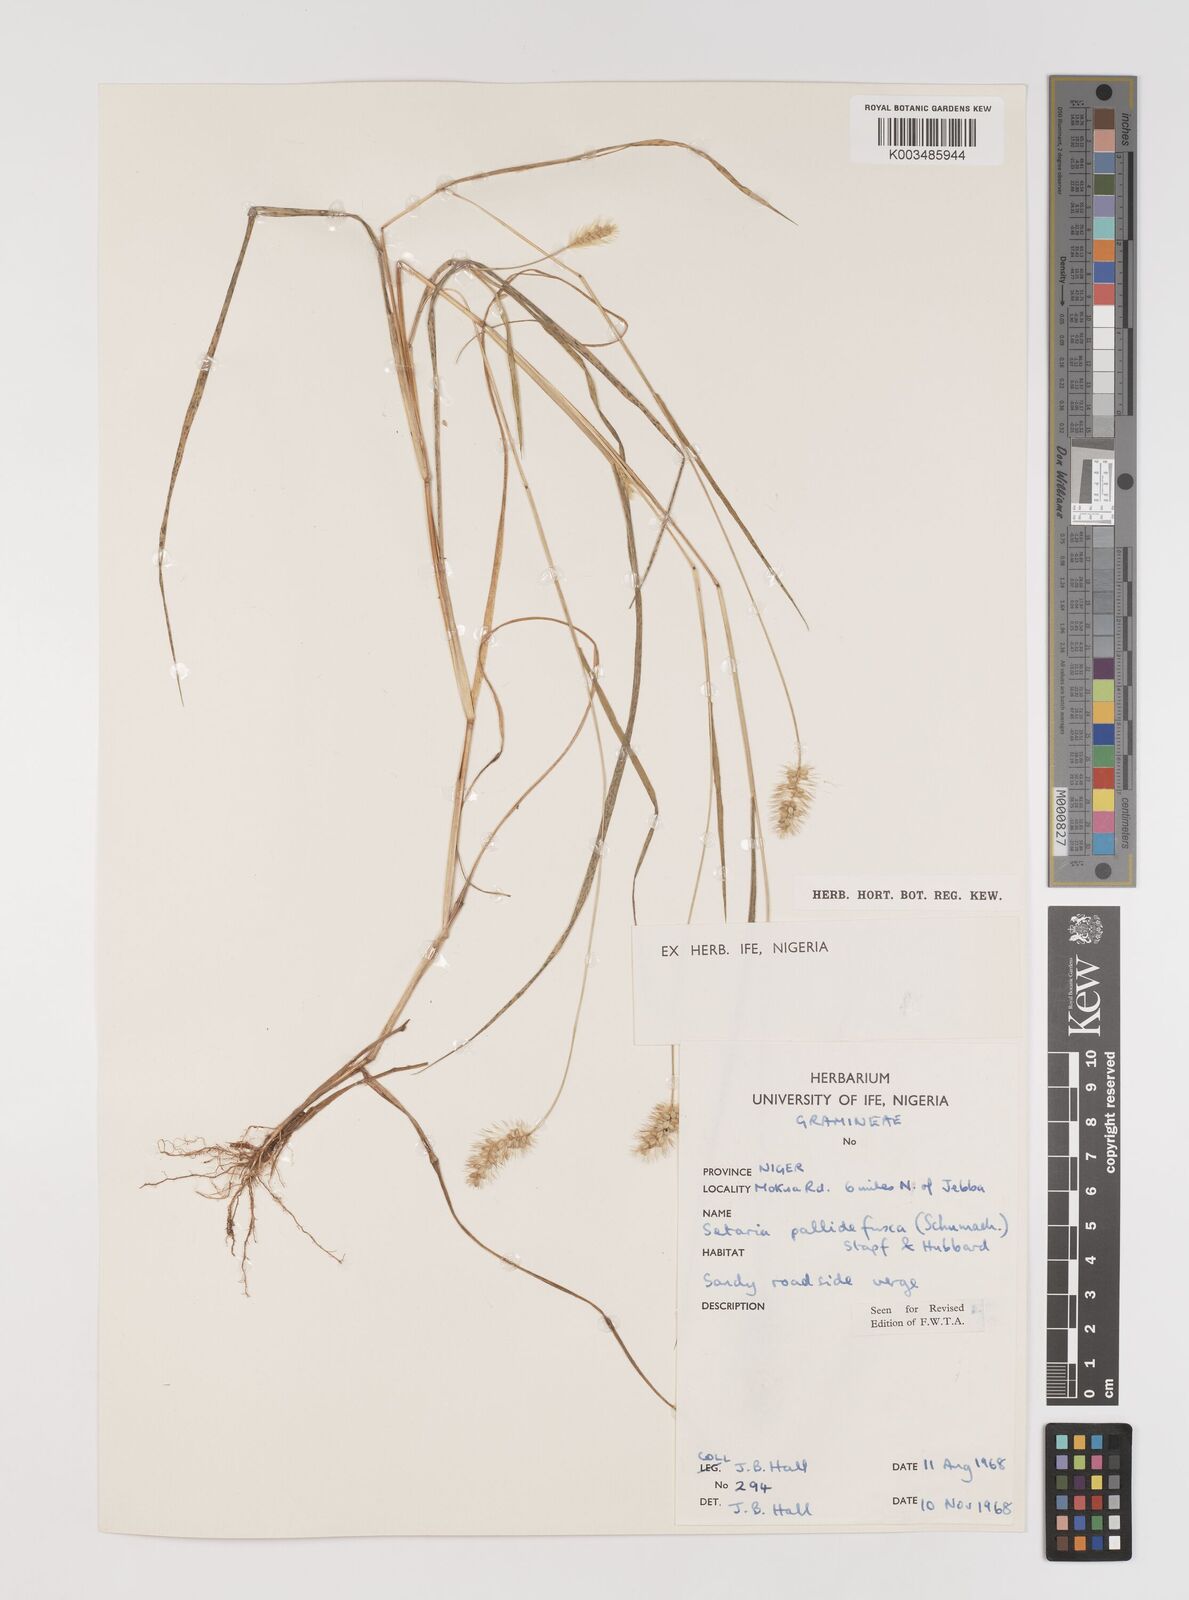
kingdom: Plantae
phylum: Tracheophyta
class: Liliopsida
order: Poales
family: Poaceae
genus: Setaria
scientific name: Setaria pumila
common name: Yellow bristle-grass
